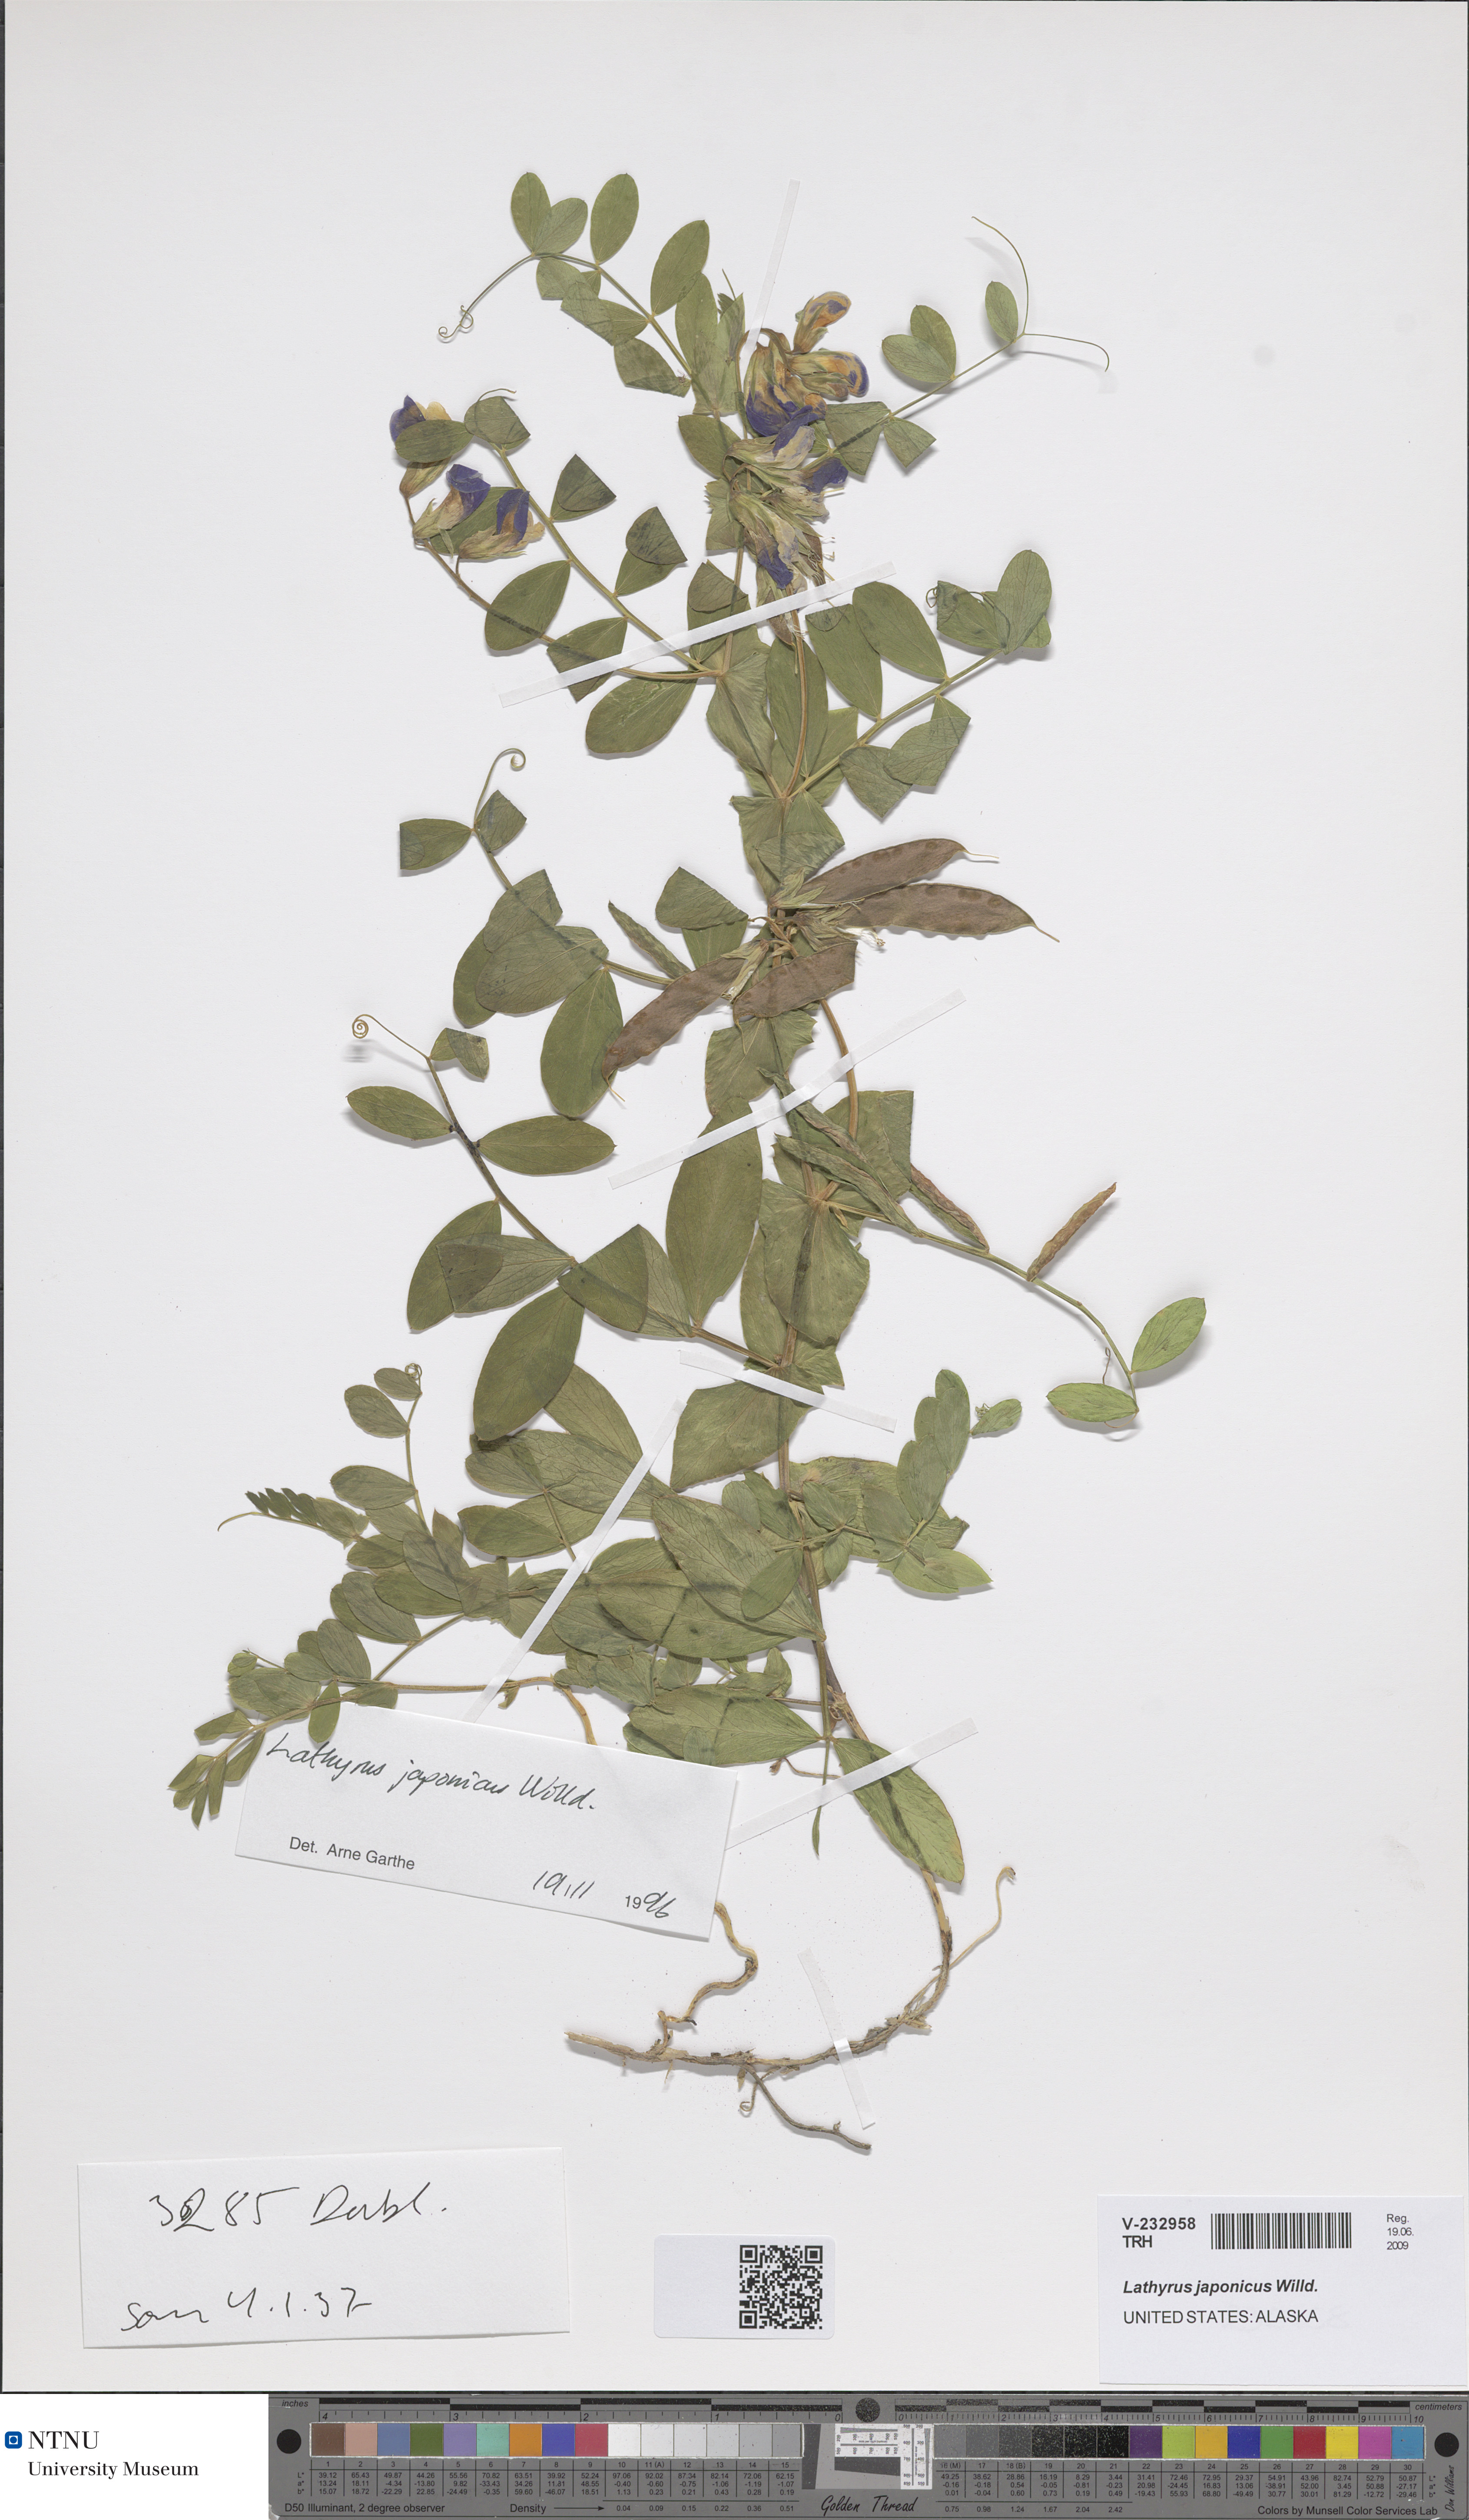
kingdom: Plantae
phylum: Tracheophyta
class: Magnoliopsida
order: Fabales
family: Fabaceae
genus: Lathyrus
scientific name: Lathyrus japonicus
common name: Sea pea
